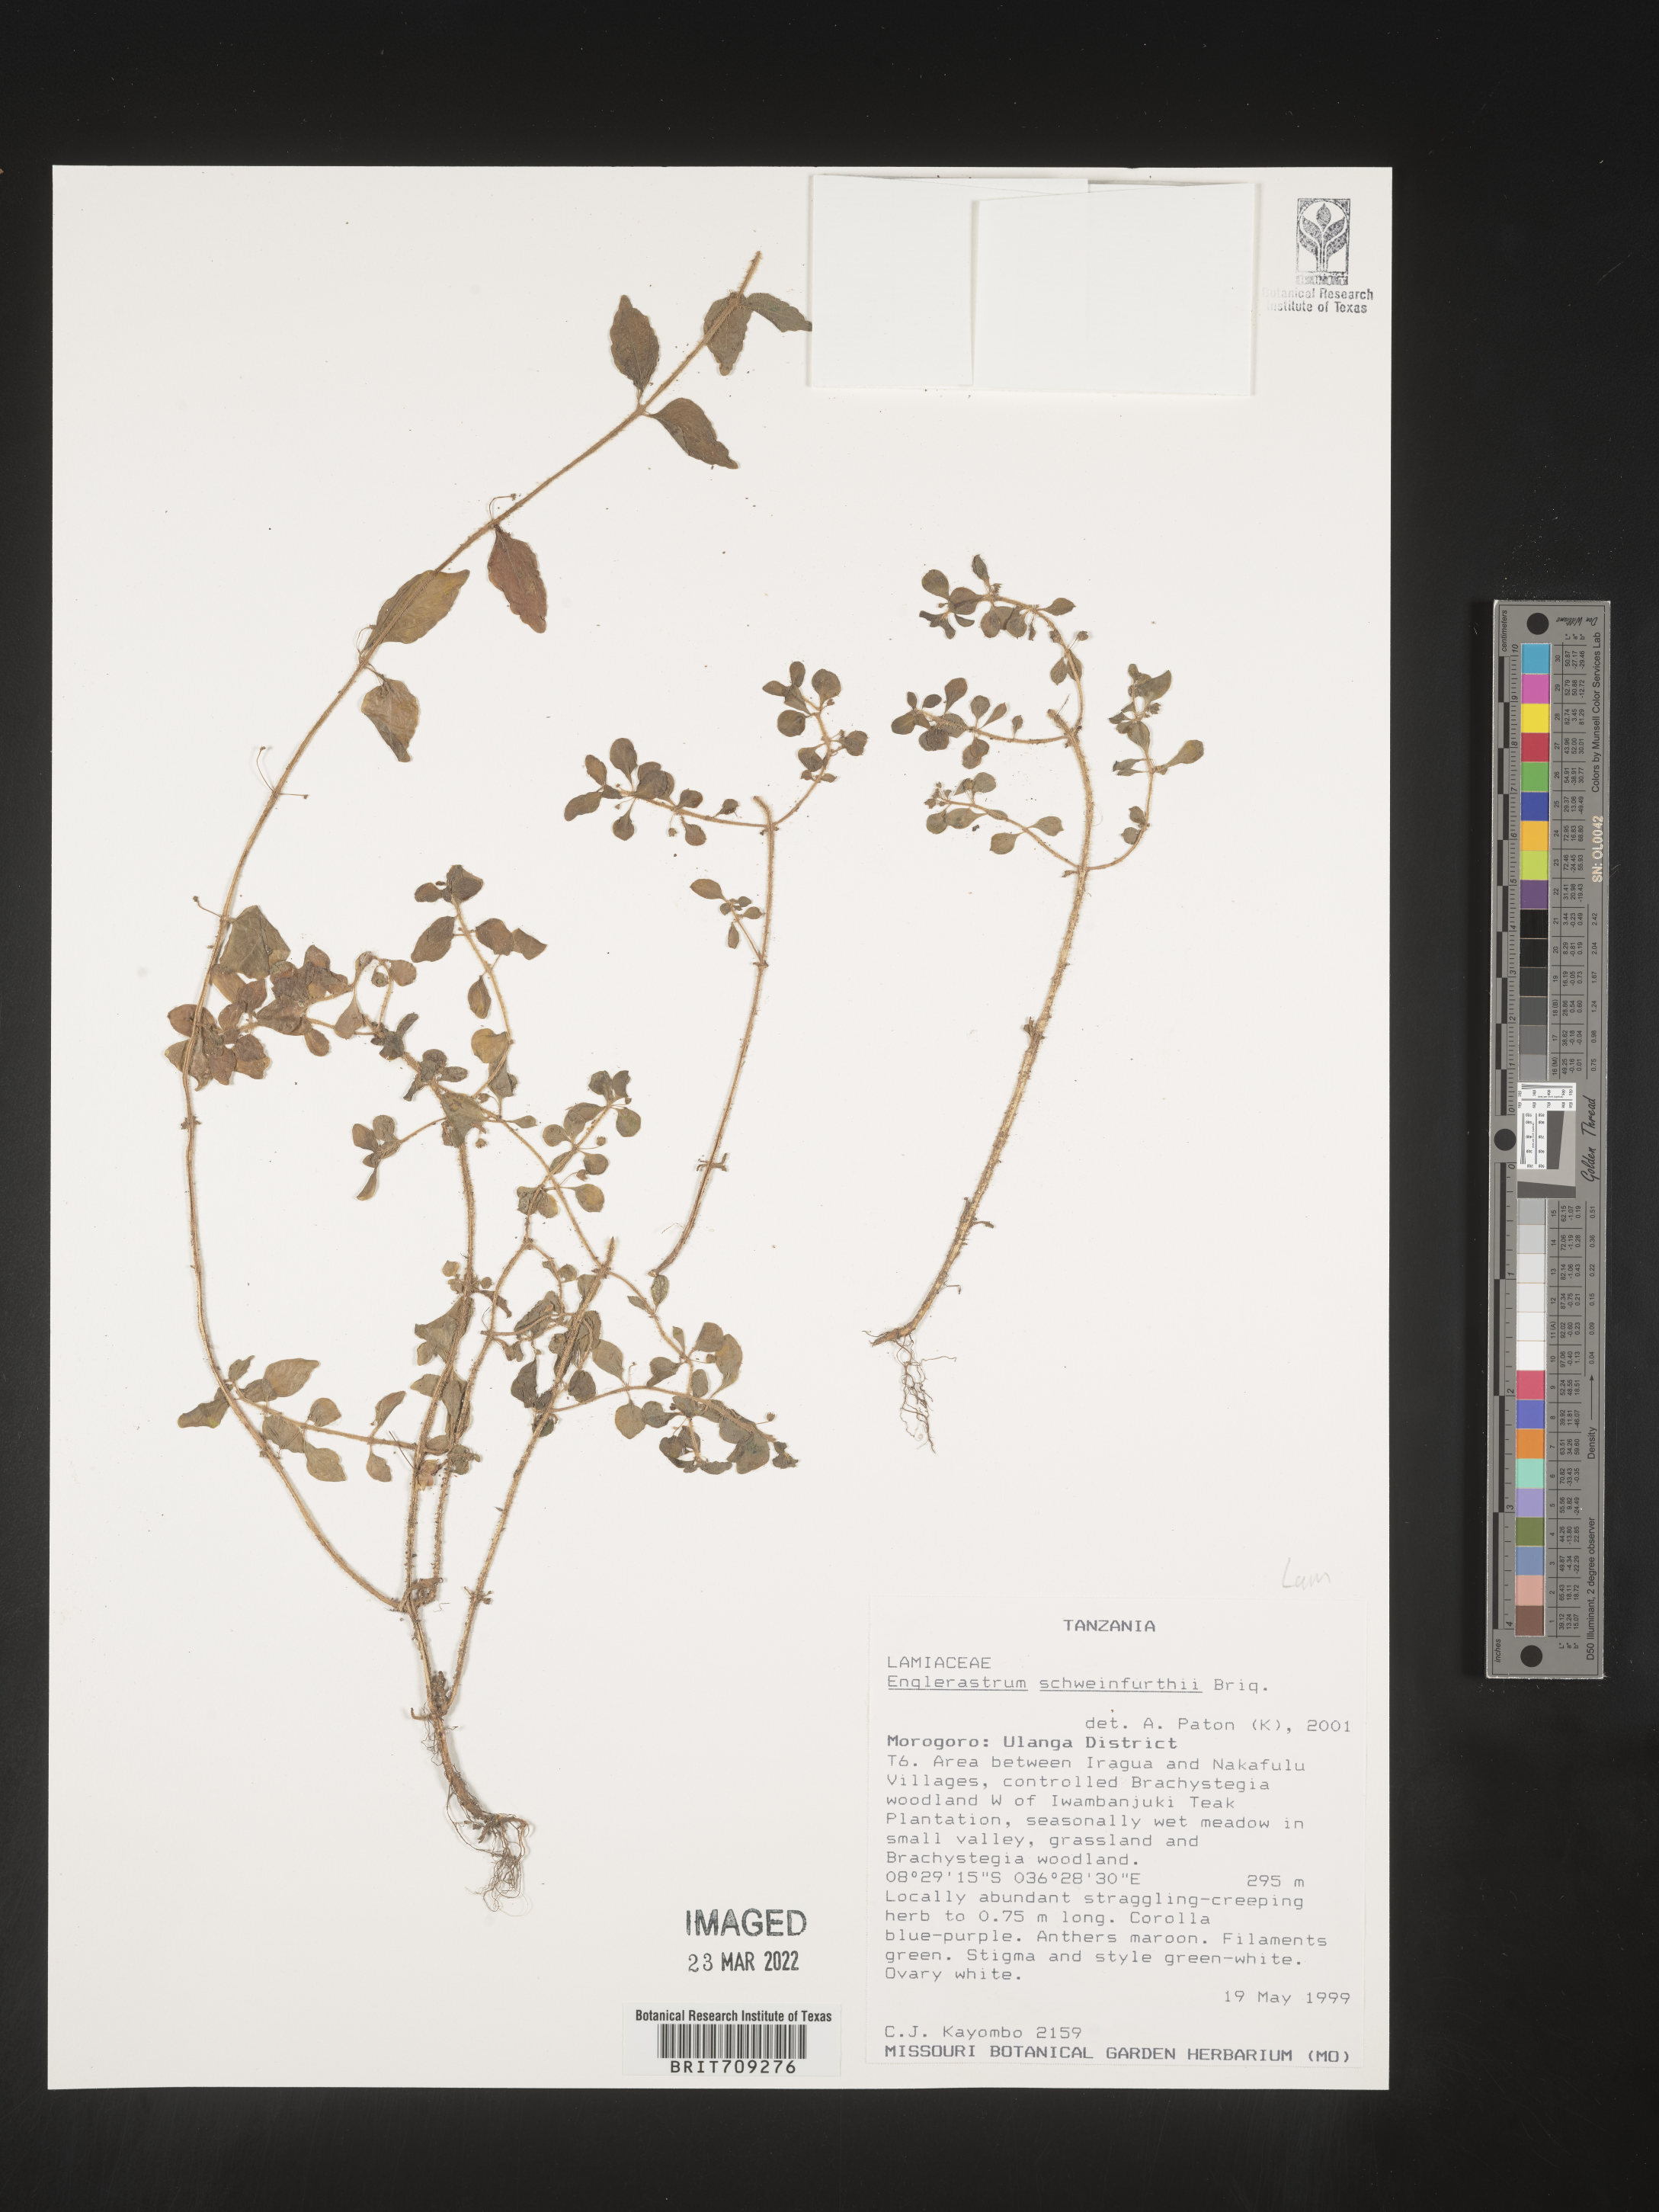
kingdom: Plantae
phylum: Tracheophyta
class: Magnoliopsida
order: Lamiales
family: Lamiaceae
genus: Coleus
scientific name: Coleus
